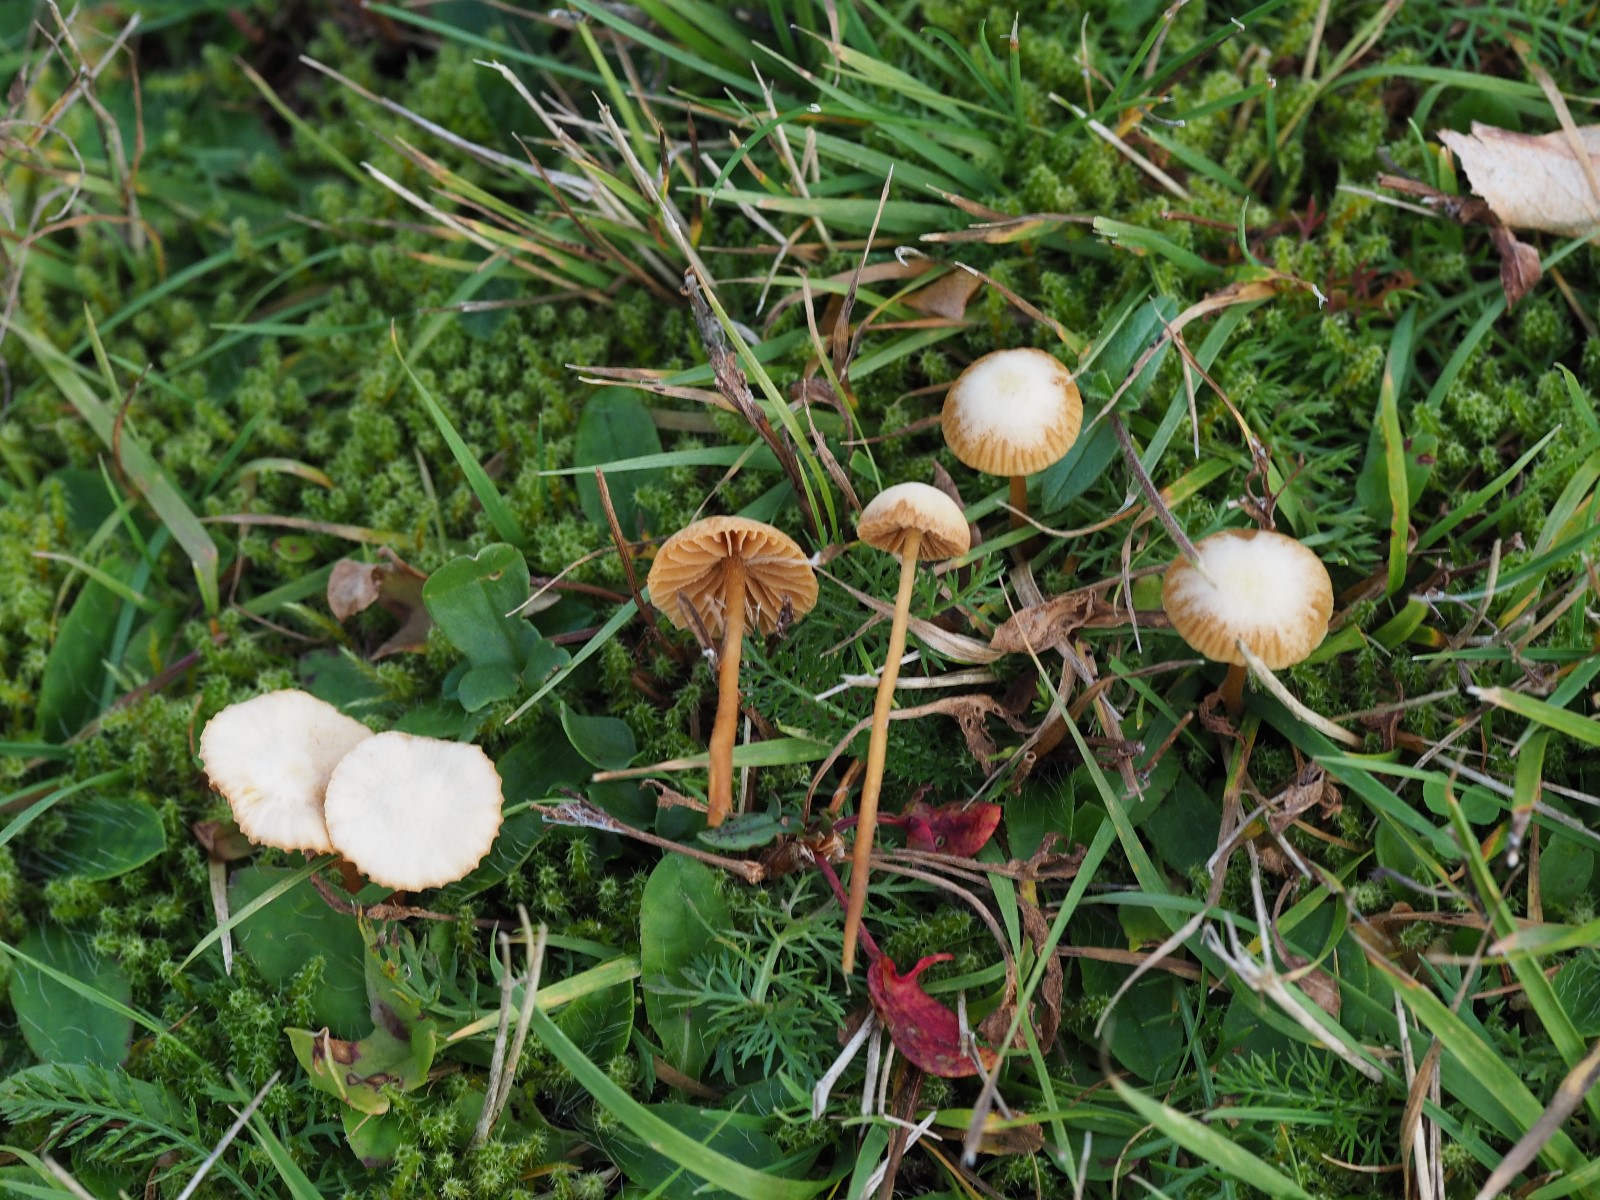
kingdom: Fungi
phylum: Basidiomycota
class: Agaricomycetes
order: Agaricales
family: Hymenogastraceae
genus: Galerina
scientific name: Galerina
